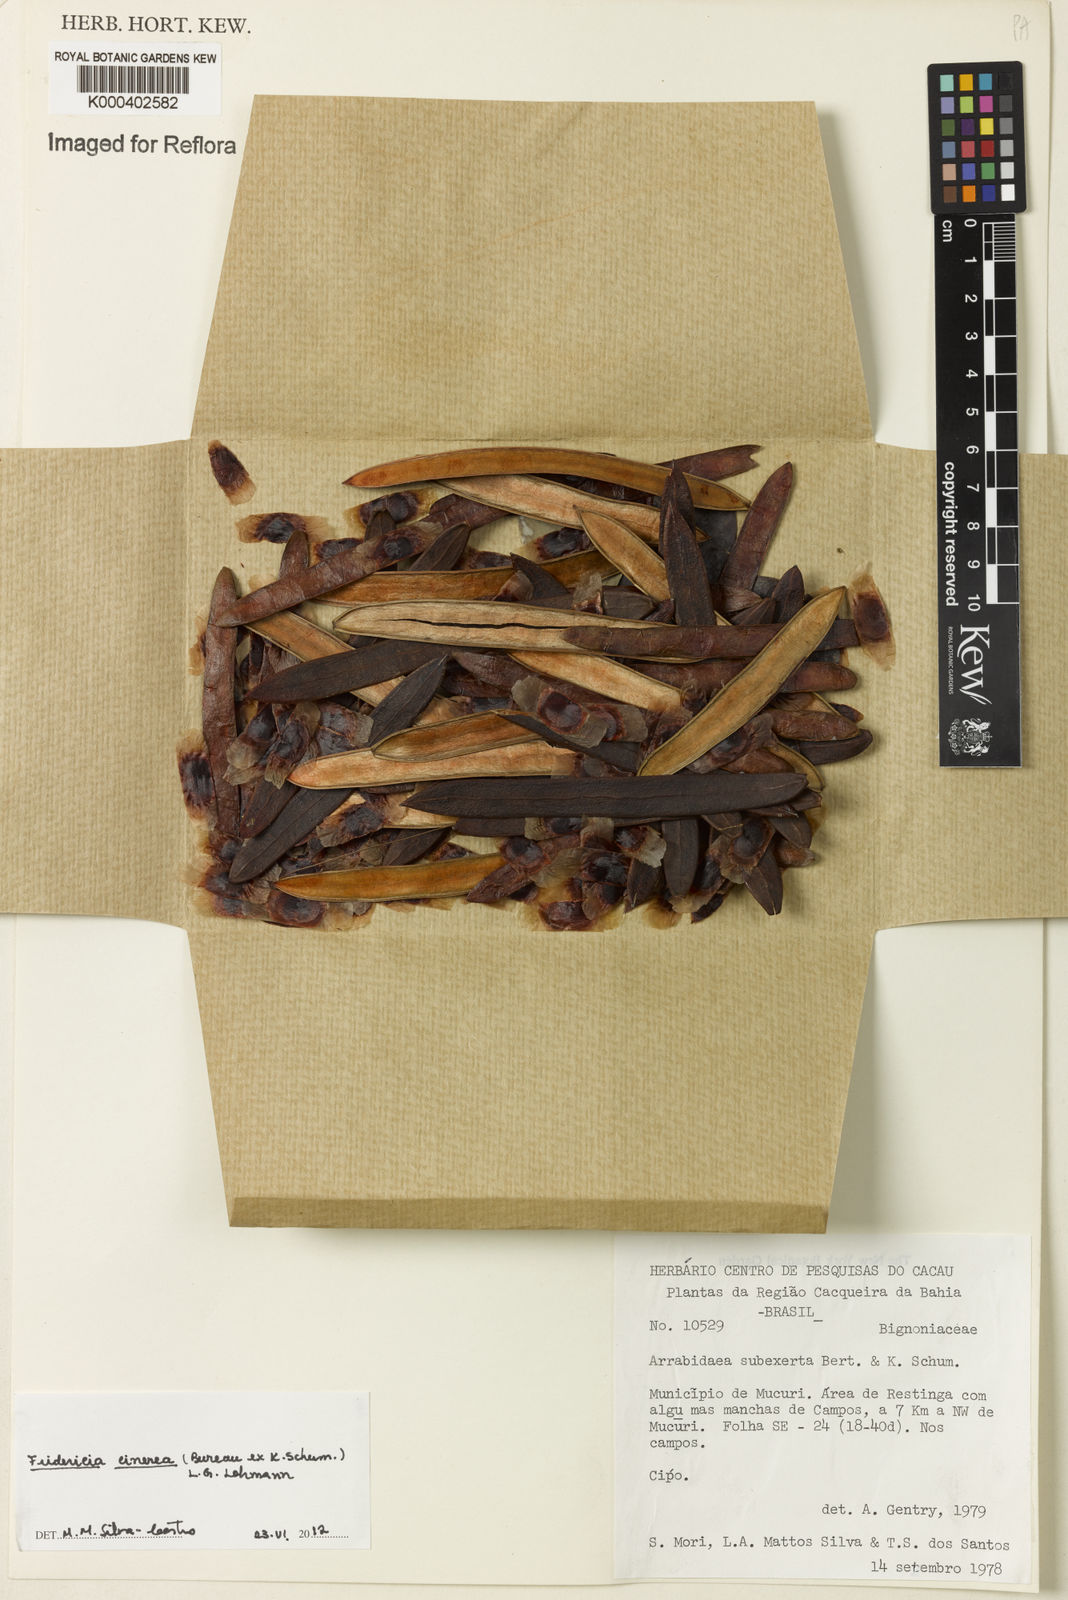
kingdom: Plantae
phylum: Tracheophyta
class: Magnoliopsida
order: Lamiales
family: Bignoniaceae
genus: Fridericia
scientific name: Fridericia cinerea
